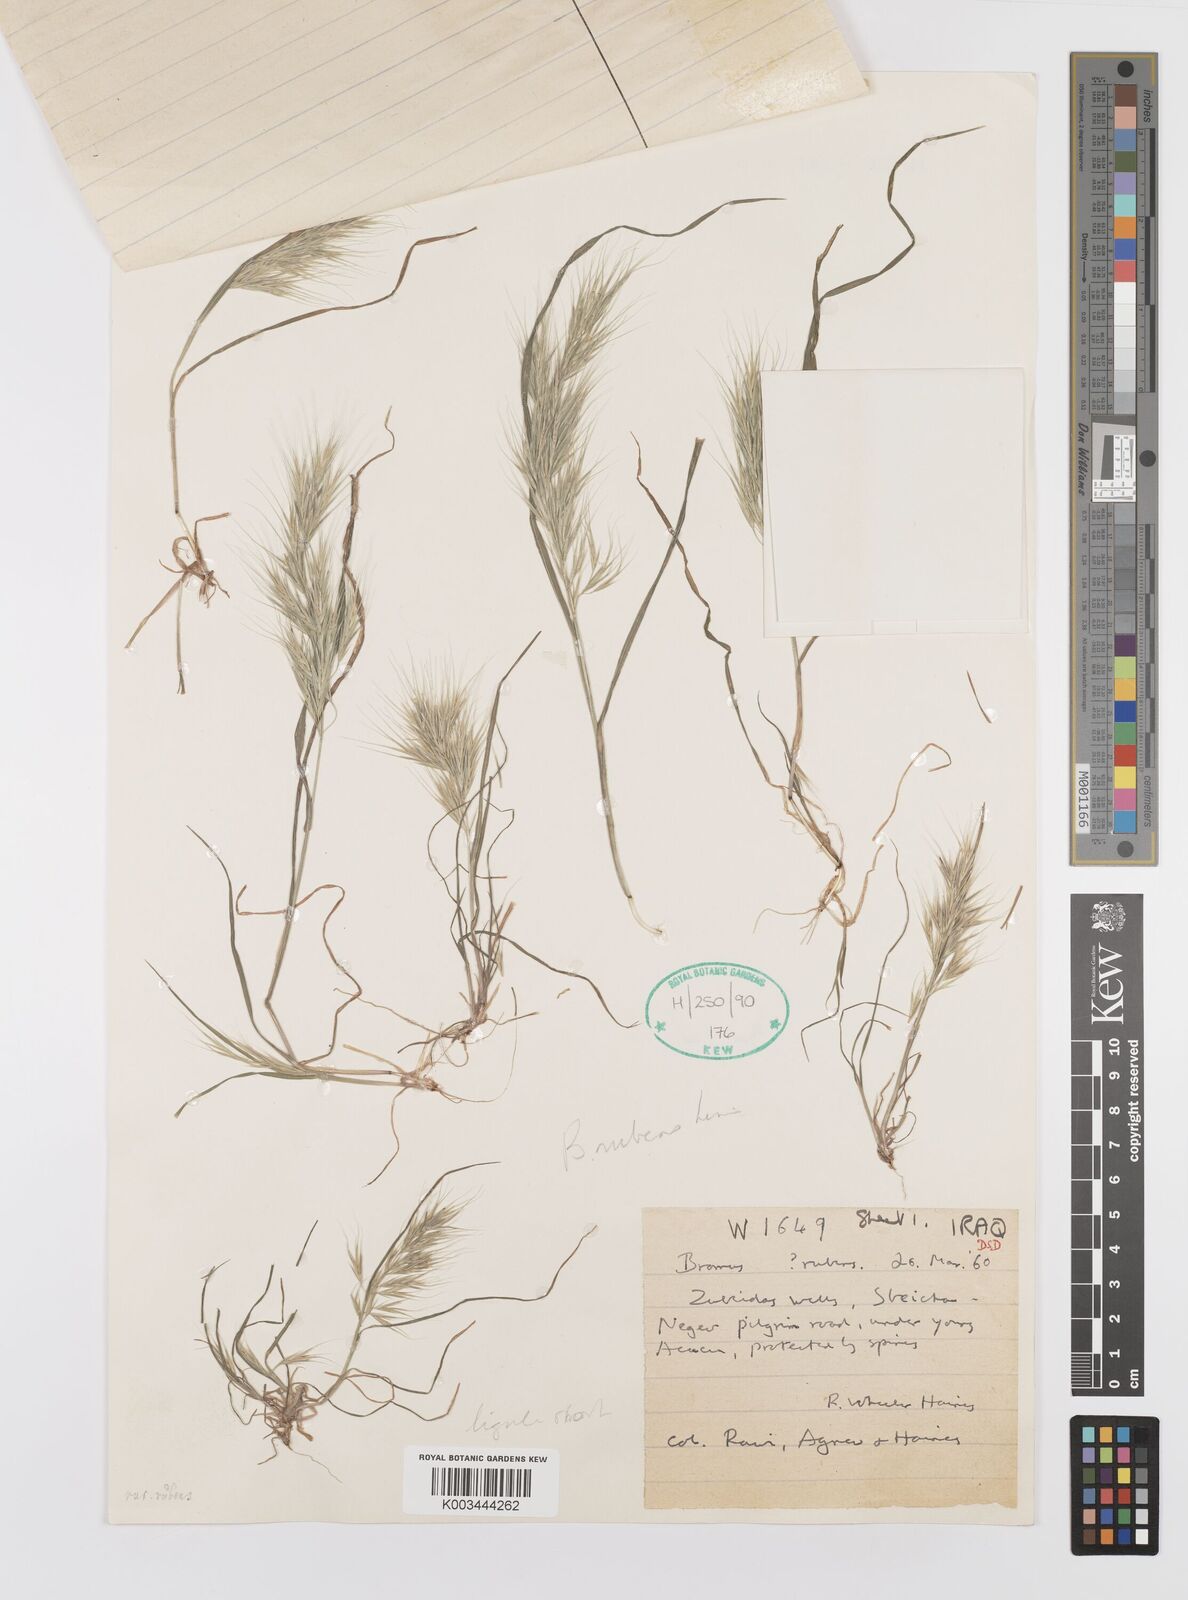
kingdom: Plantae
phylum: Tracheophyta
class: Liliopsida
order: Poales
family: Poaceae
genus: Bromus
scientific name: Bromus madritensis
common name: Compact brome
